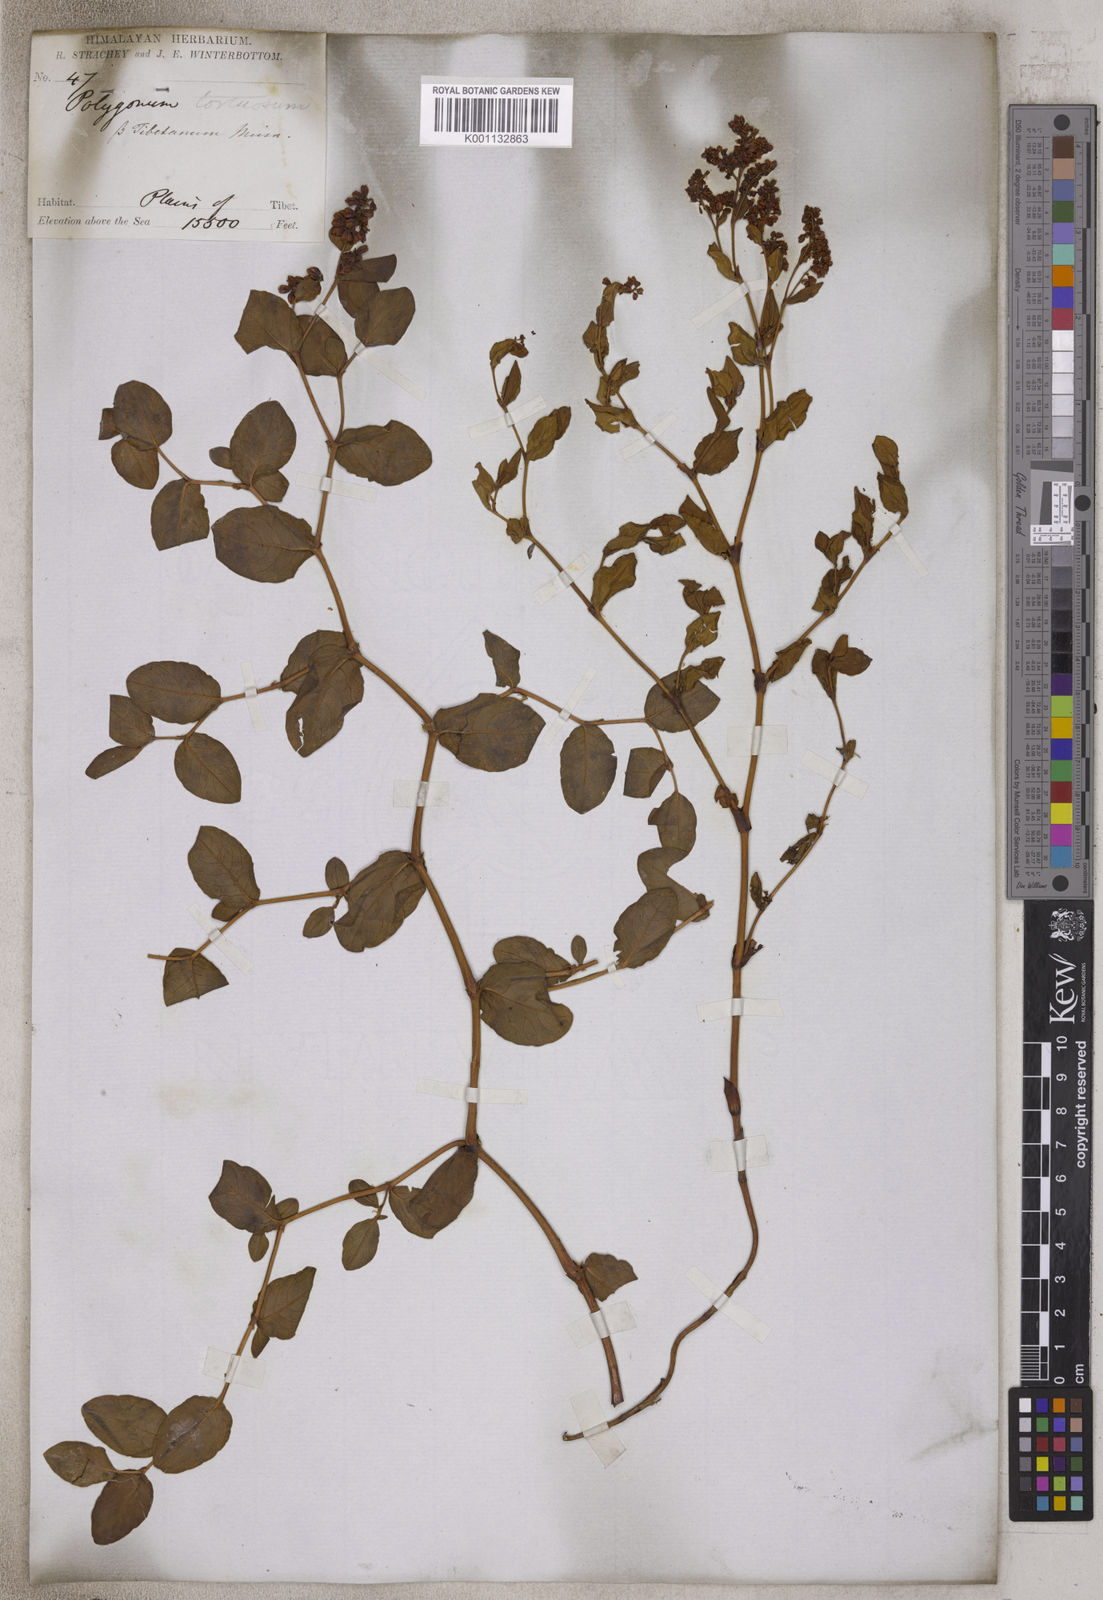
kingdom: Plantae
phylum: Tracheophyta
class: Magnoliopsida
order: Caryophyllales
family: Polygonaceae
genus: Koenigia
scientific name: Koenigia tortuosa
